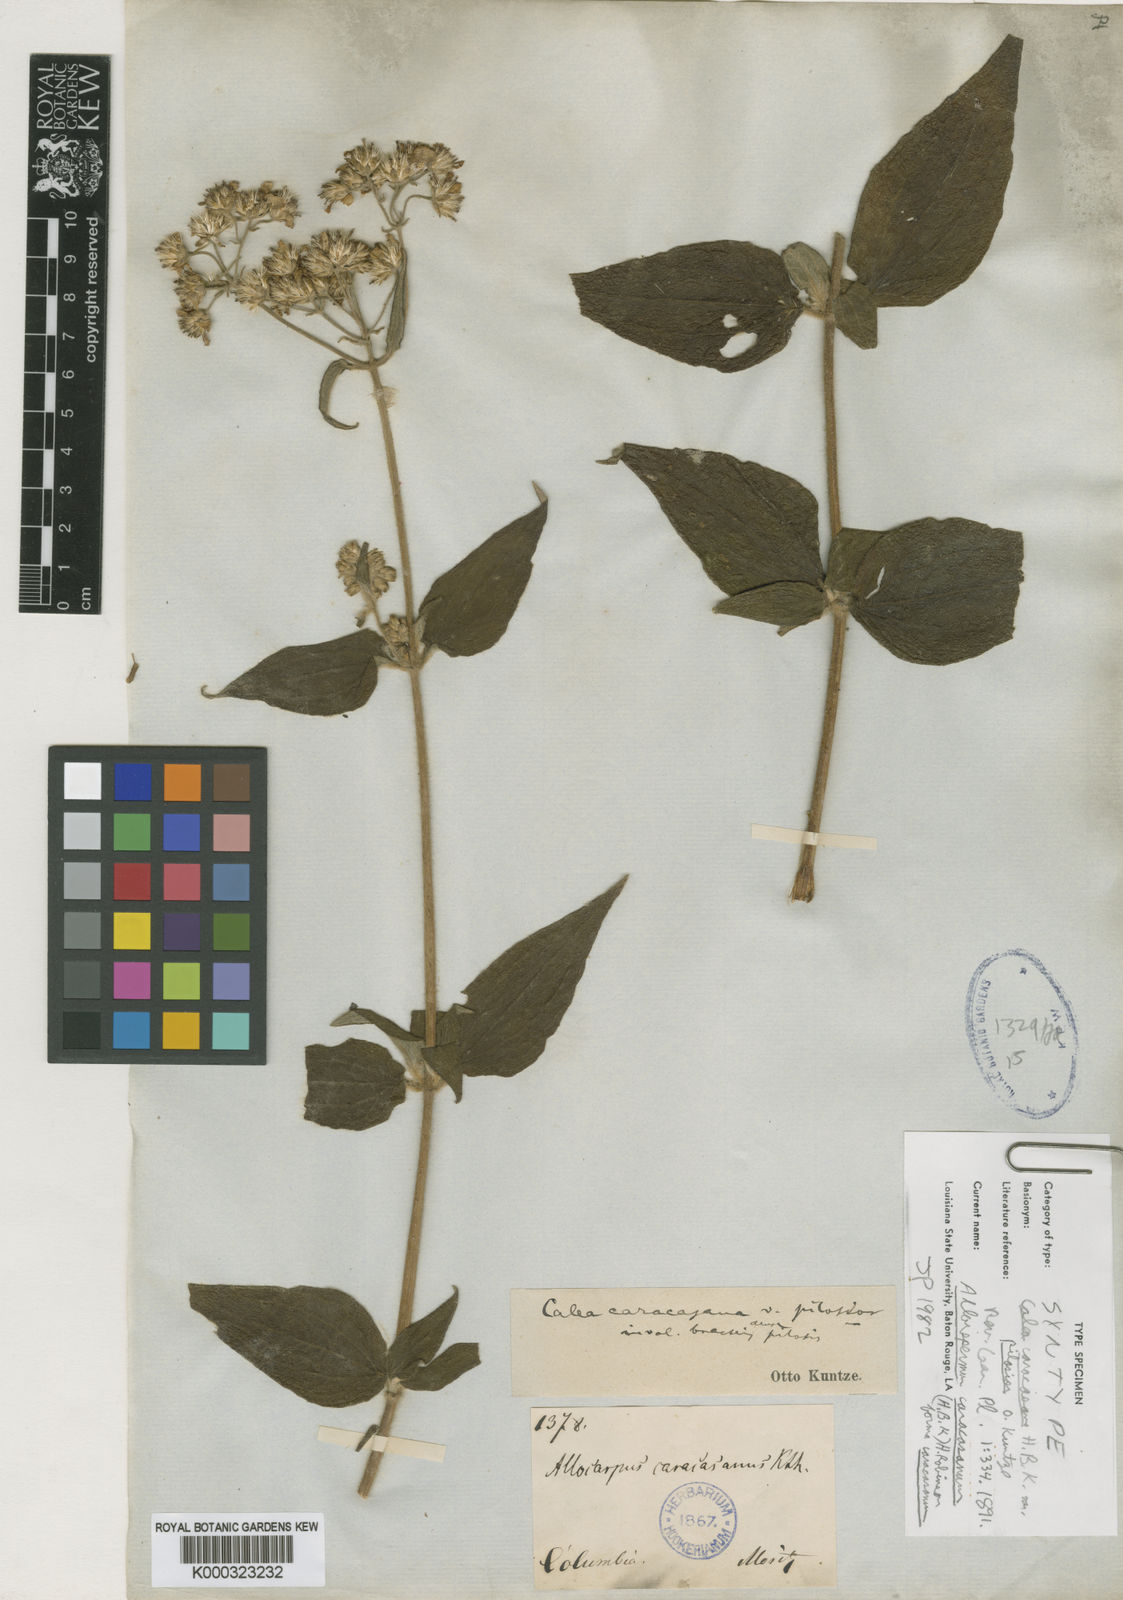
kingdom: Plantae
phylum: Tracheophyta
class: Magnoliopsida
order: Asterales
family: Asteraceae
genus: Alloispermum
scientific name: Alloispermum caracasanum
